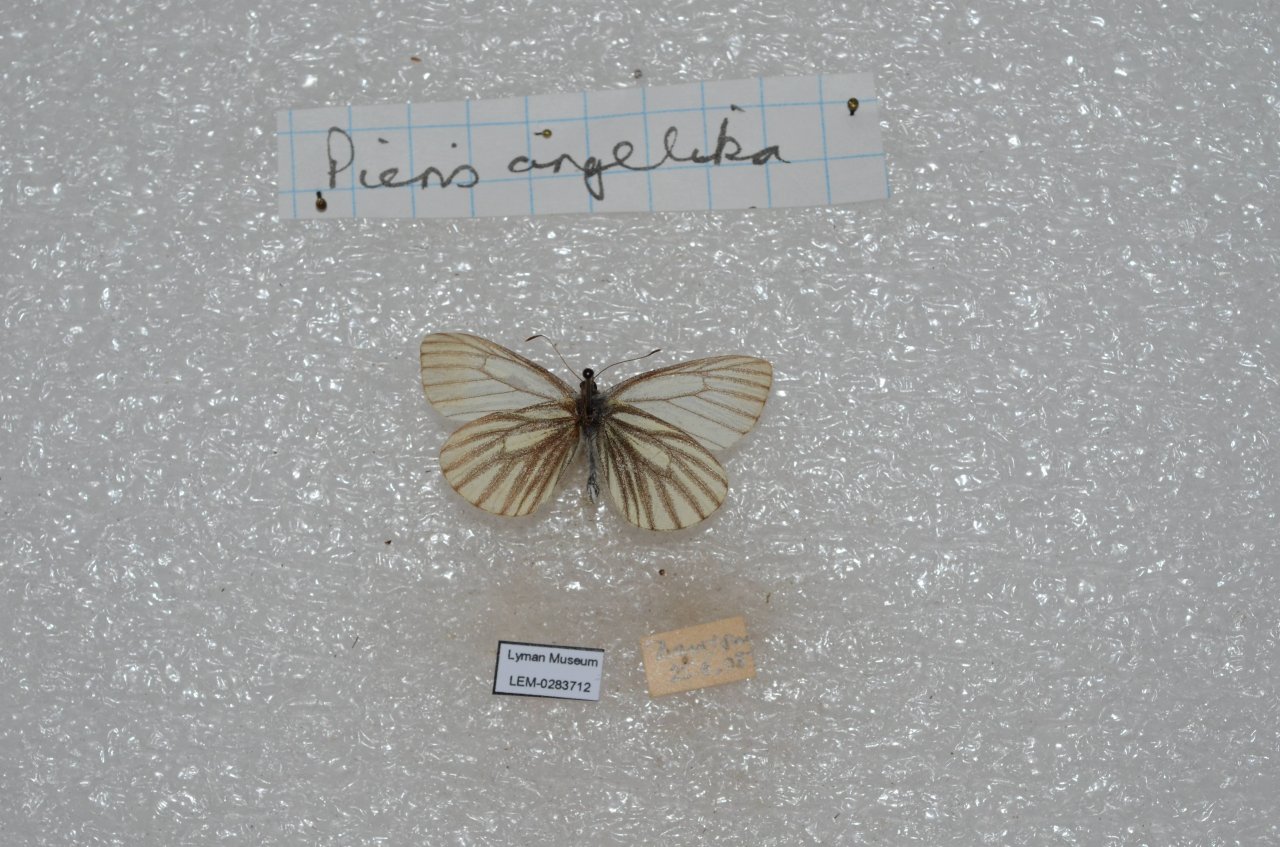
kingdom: Animalia
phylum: Arthropoda
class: Insecta
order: Lepidoptera
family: Pieridae
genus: Pieris
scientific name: Pieris angelika
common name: Arctic White
